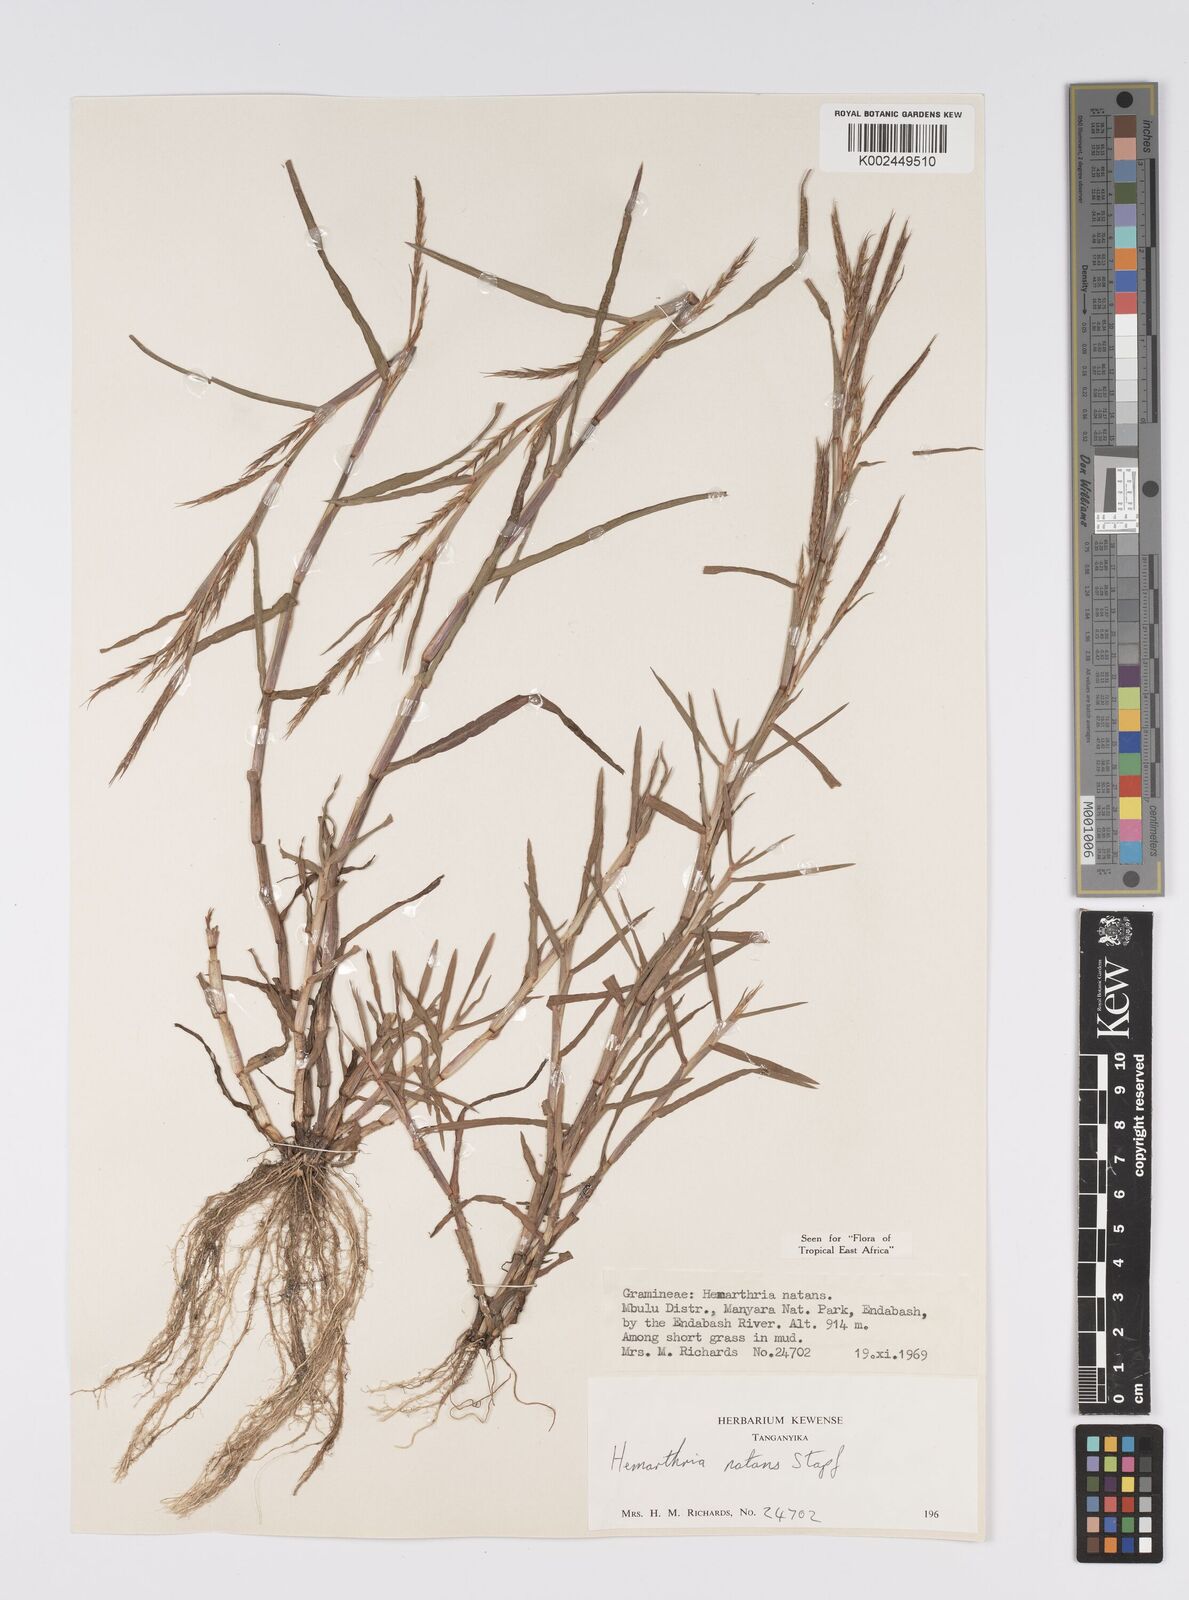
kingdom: Plantae
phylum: Tracheophyta
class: Liliopsida
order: Poales
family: Poaceae
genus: Hemarthria
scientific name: Hemarthria natans
